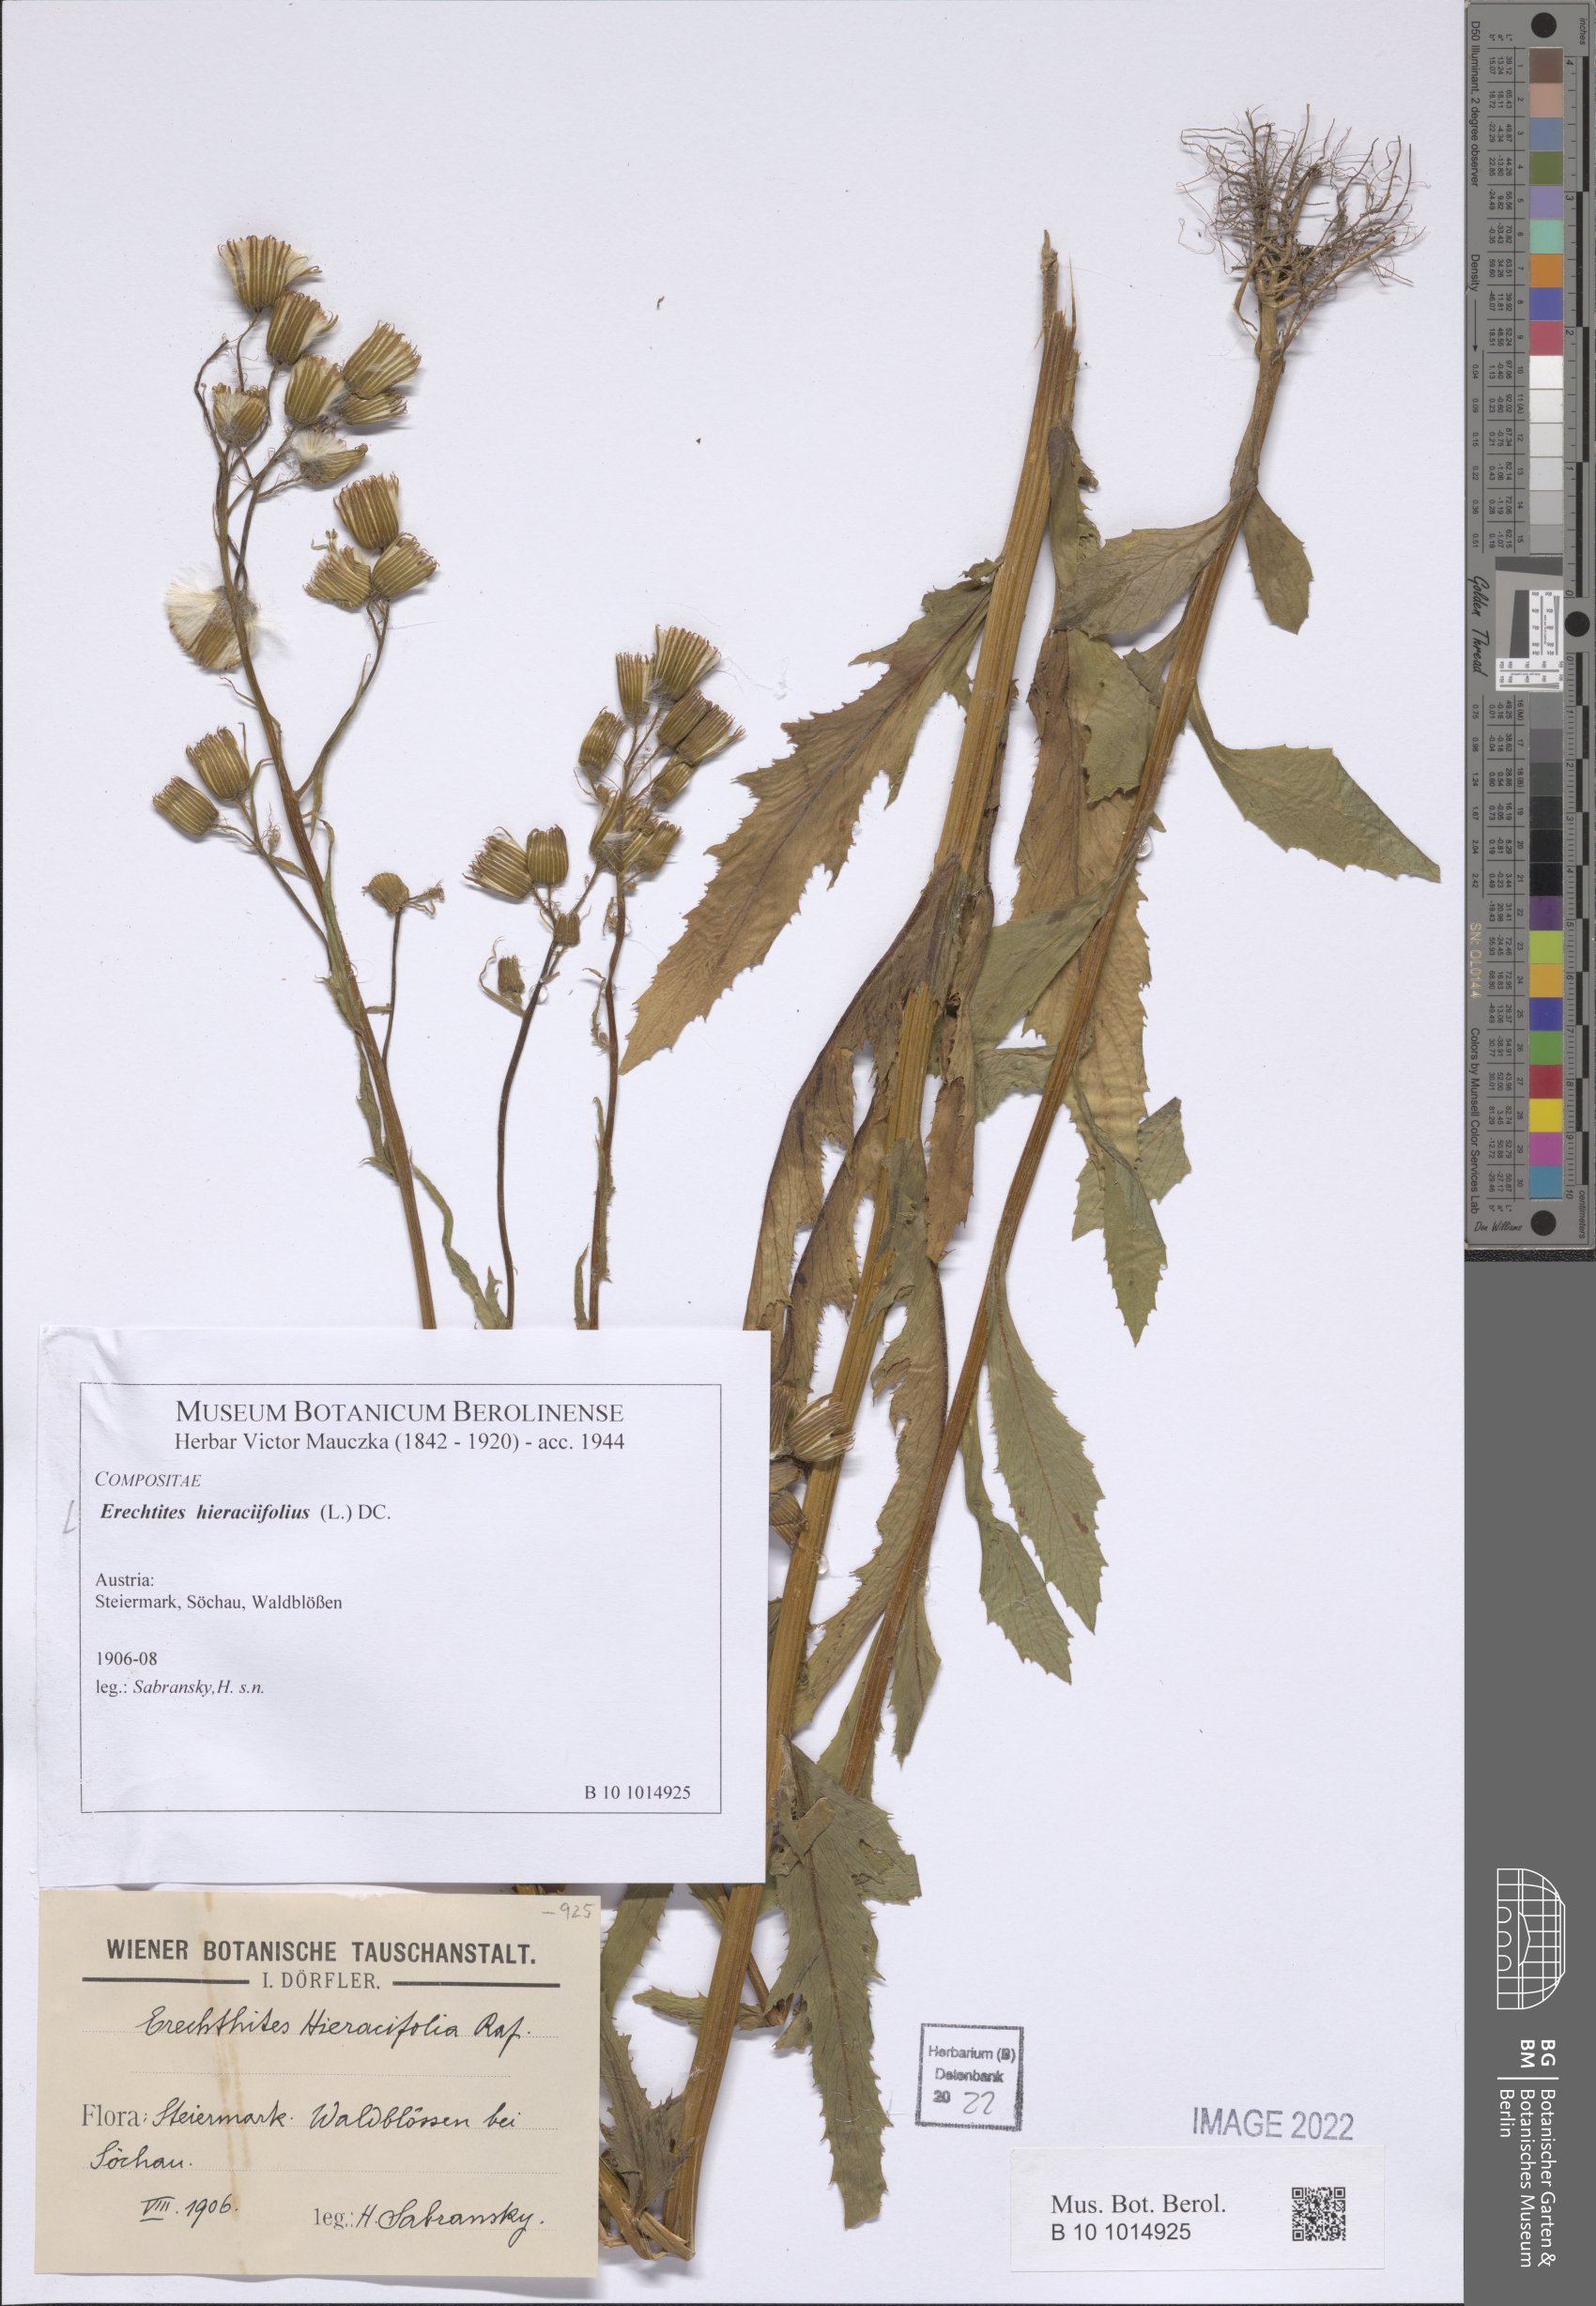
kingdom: Plantae
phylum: Tracheophyta
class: Magnoliopsida
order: Asterales
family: Asteraceae
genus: Erechtites
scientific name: Erechtites hieraciifolius
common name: American burnweed
